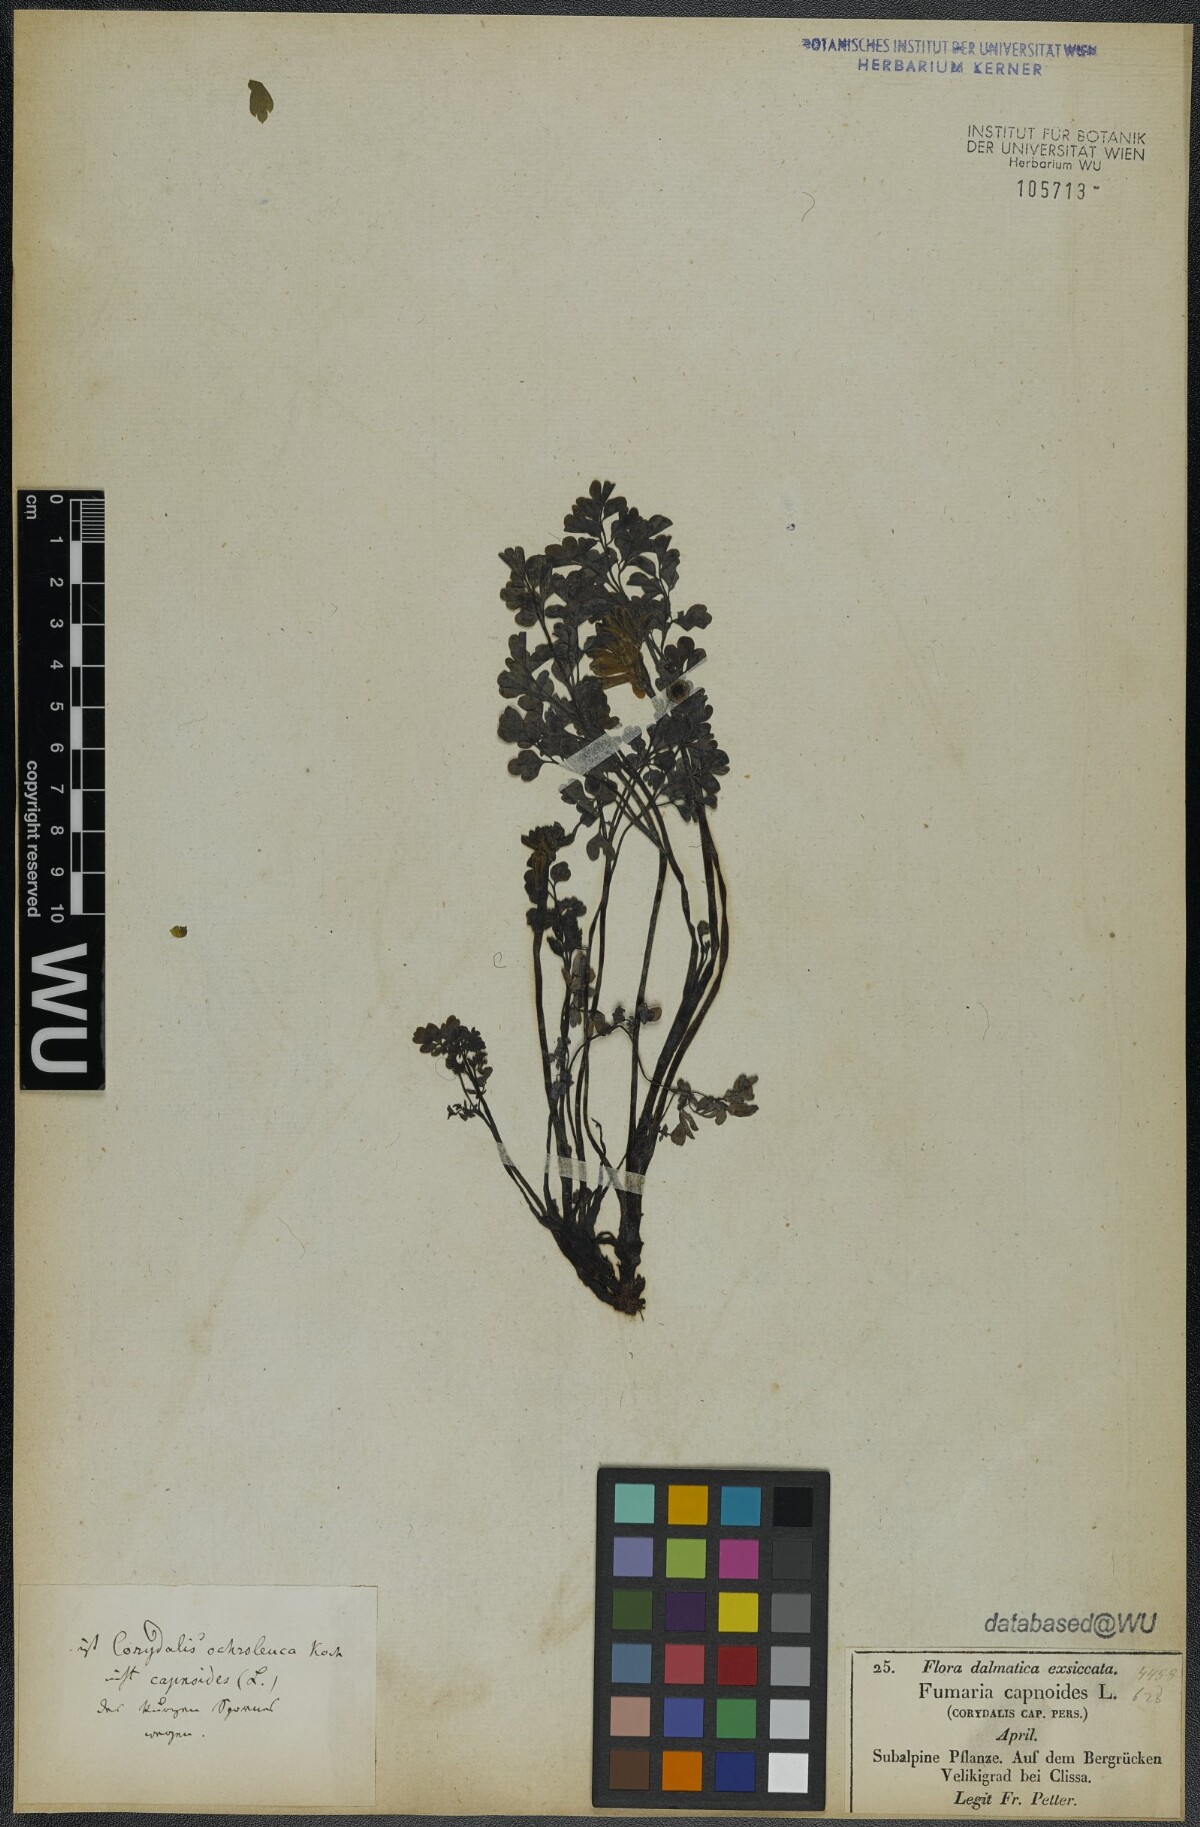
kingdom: Plantae
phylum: Tracheophyta
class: Magnoliopsida
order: Ranunculales
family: Papaveraceae
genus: Pseudofumaria
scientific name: Pseudofumaria alba
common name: Pale corydalis
